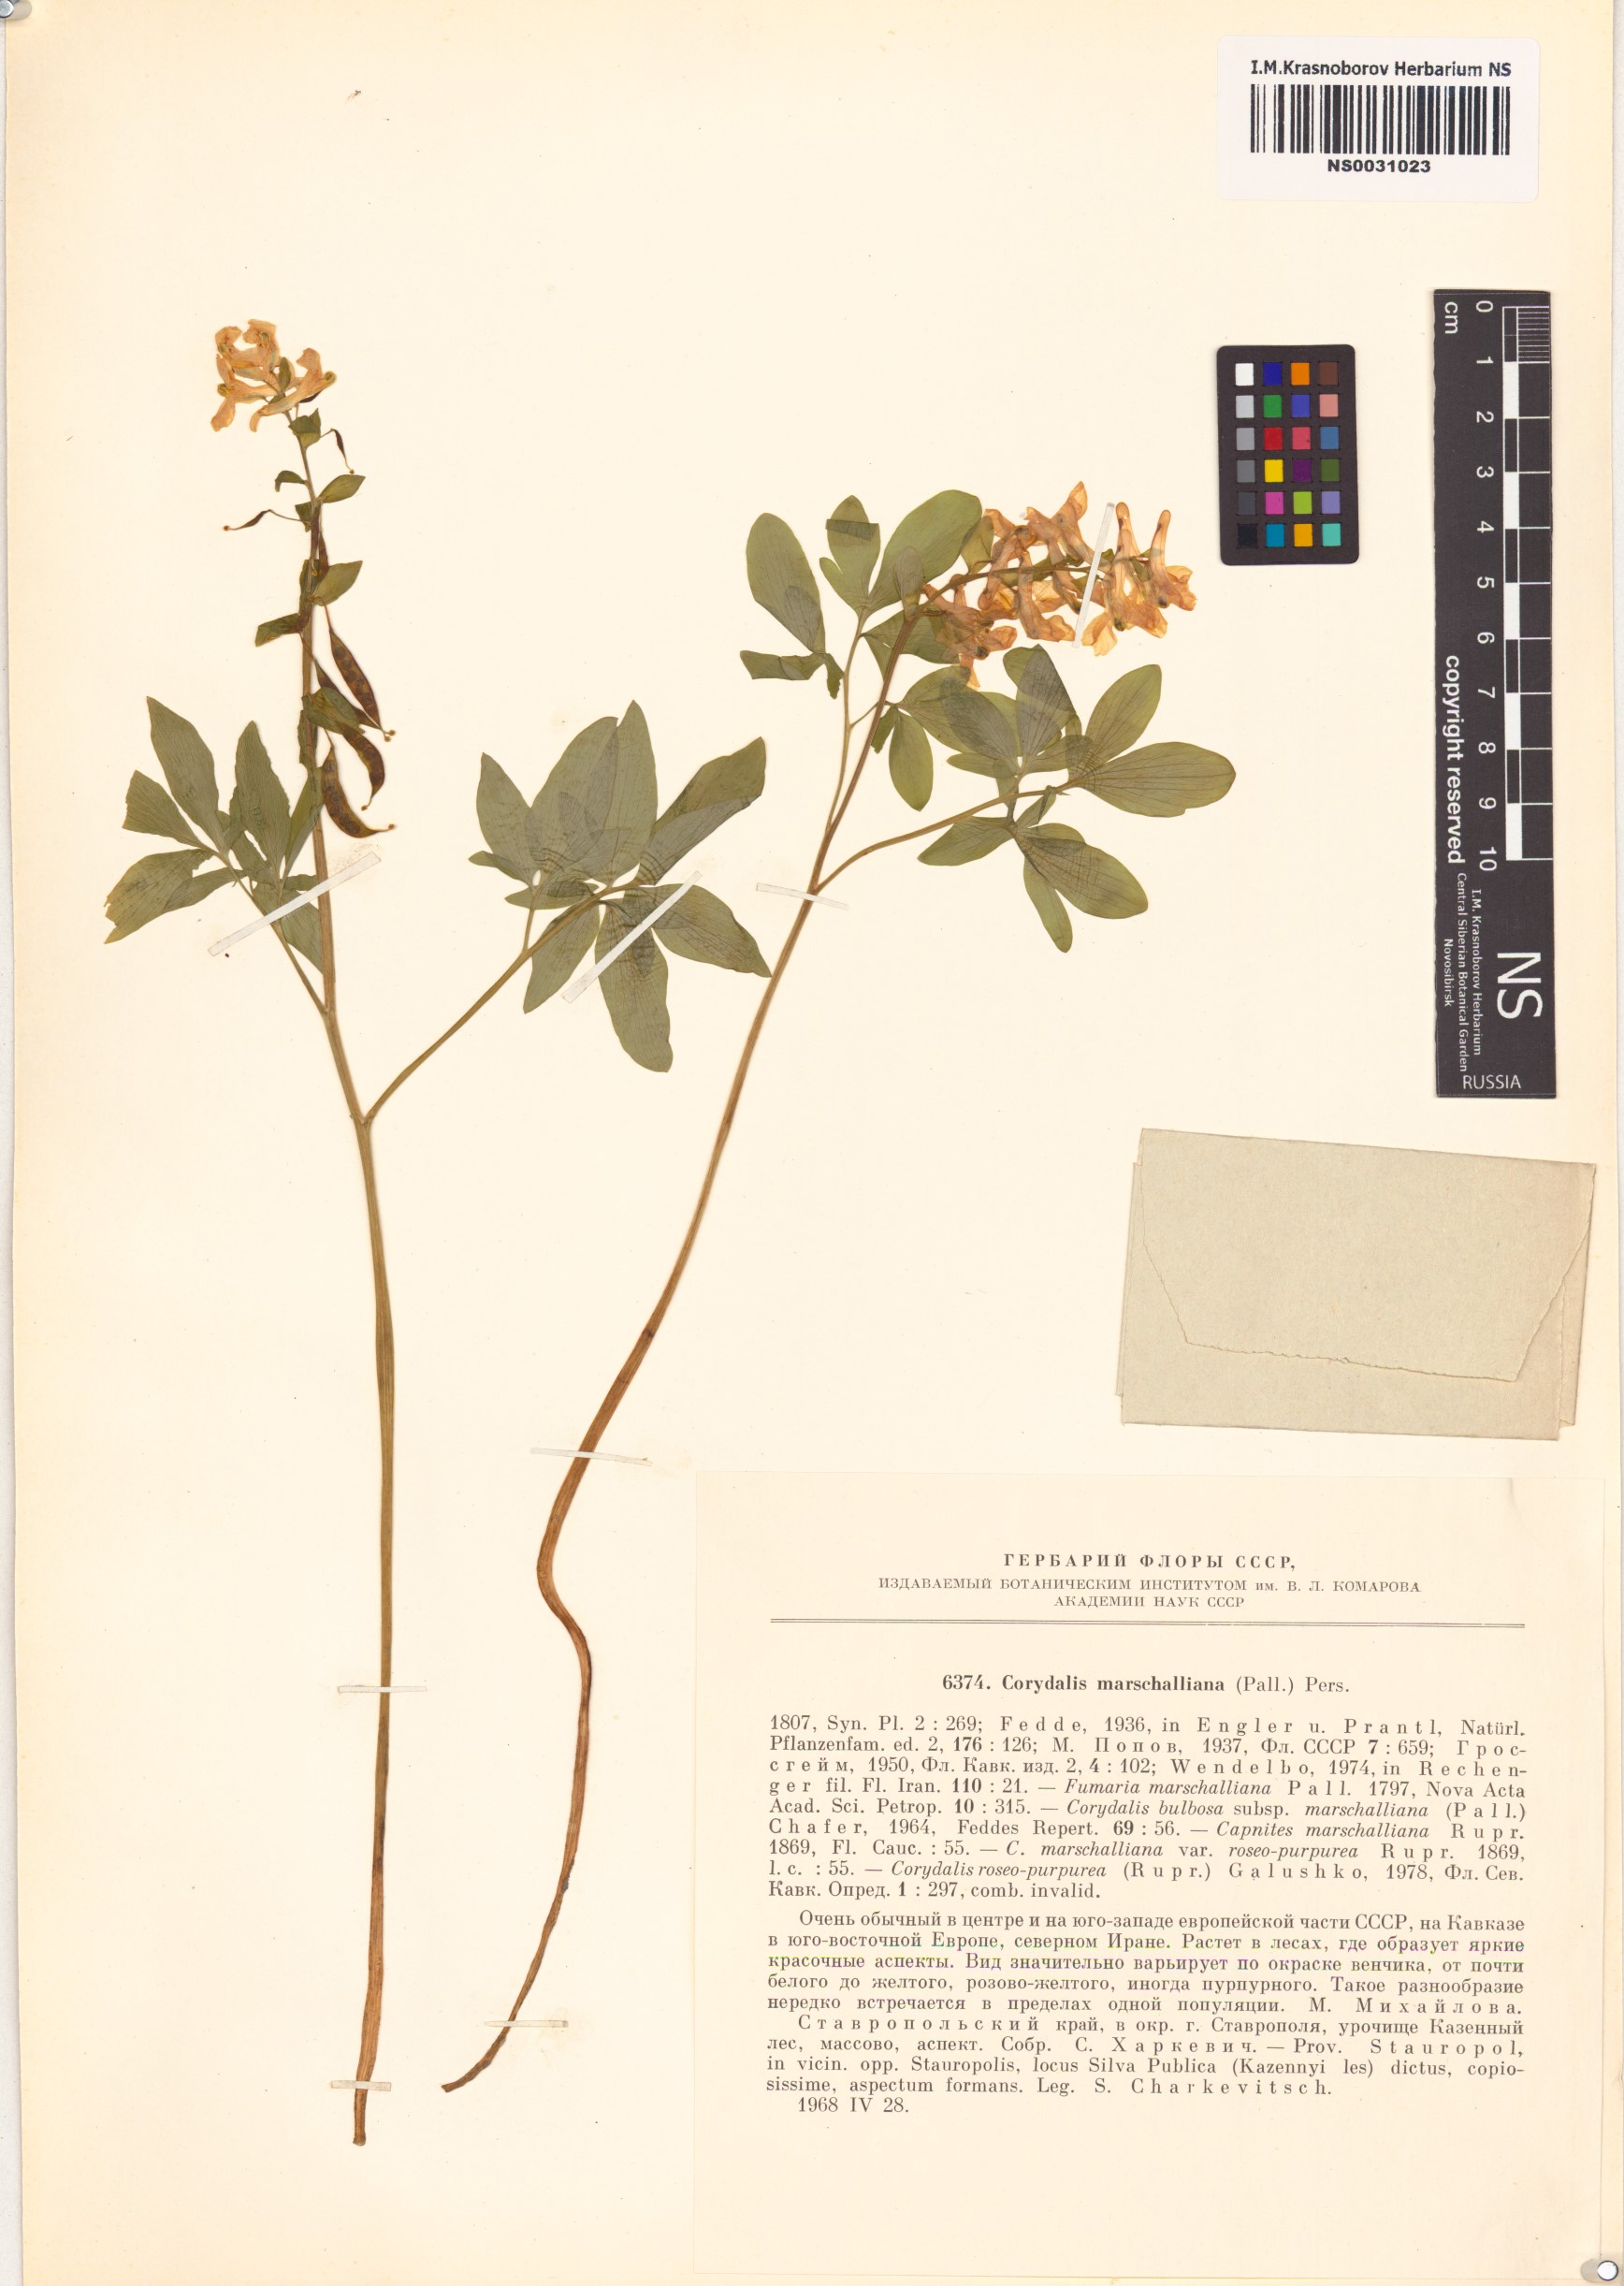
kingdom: Plantae
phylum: Tracheophyta
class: Magnoliopsida
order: Ranunculales
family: Papaveraceae
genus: Corydalis
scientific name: Corydalis cava
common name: Hollowroot
